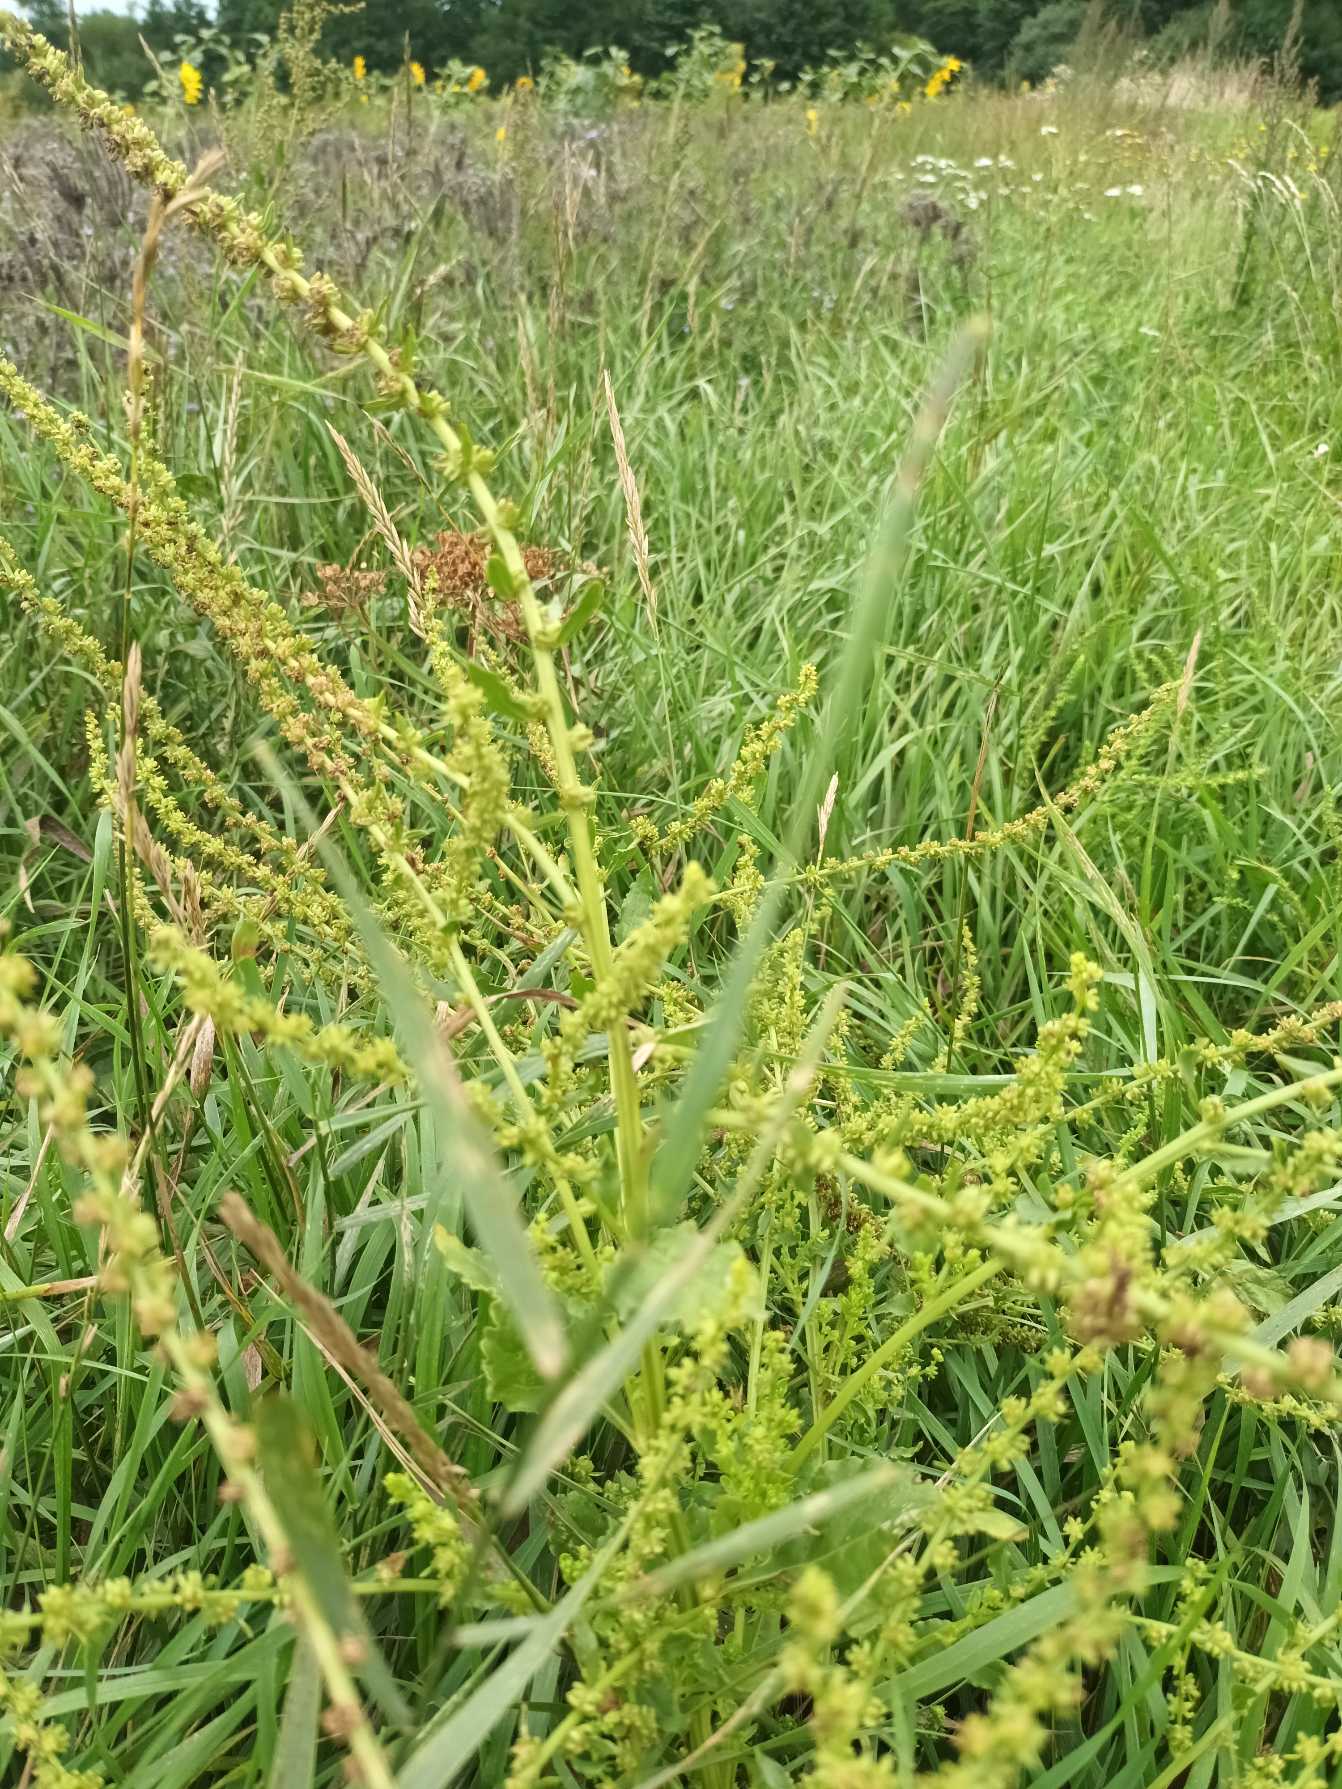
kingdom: Plantae
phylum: Tracheophyta
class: Magnoliopsida
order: Caryophyllales
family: Amaranthaceae
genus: Beta
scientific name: Beta vulgaris
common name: Foder-bede
